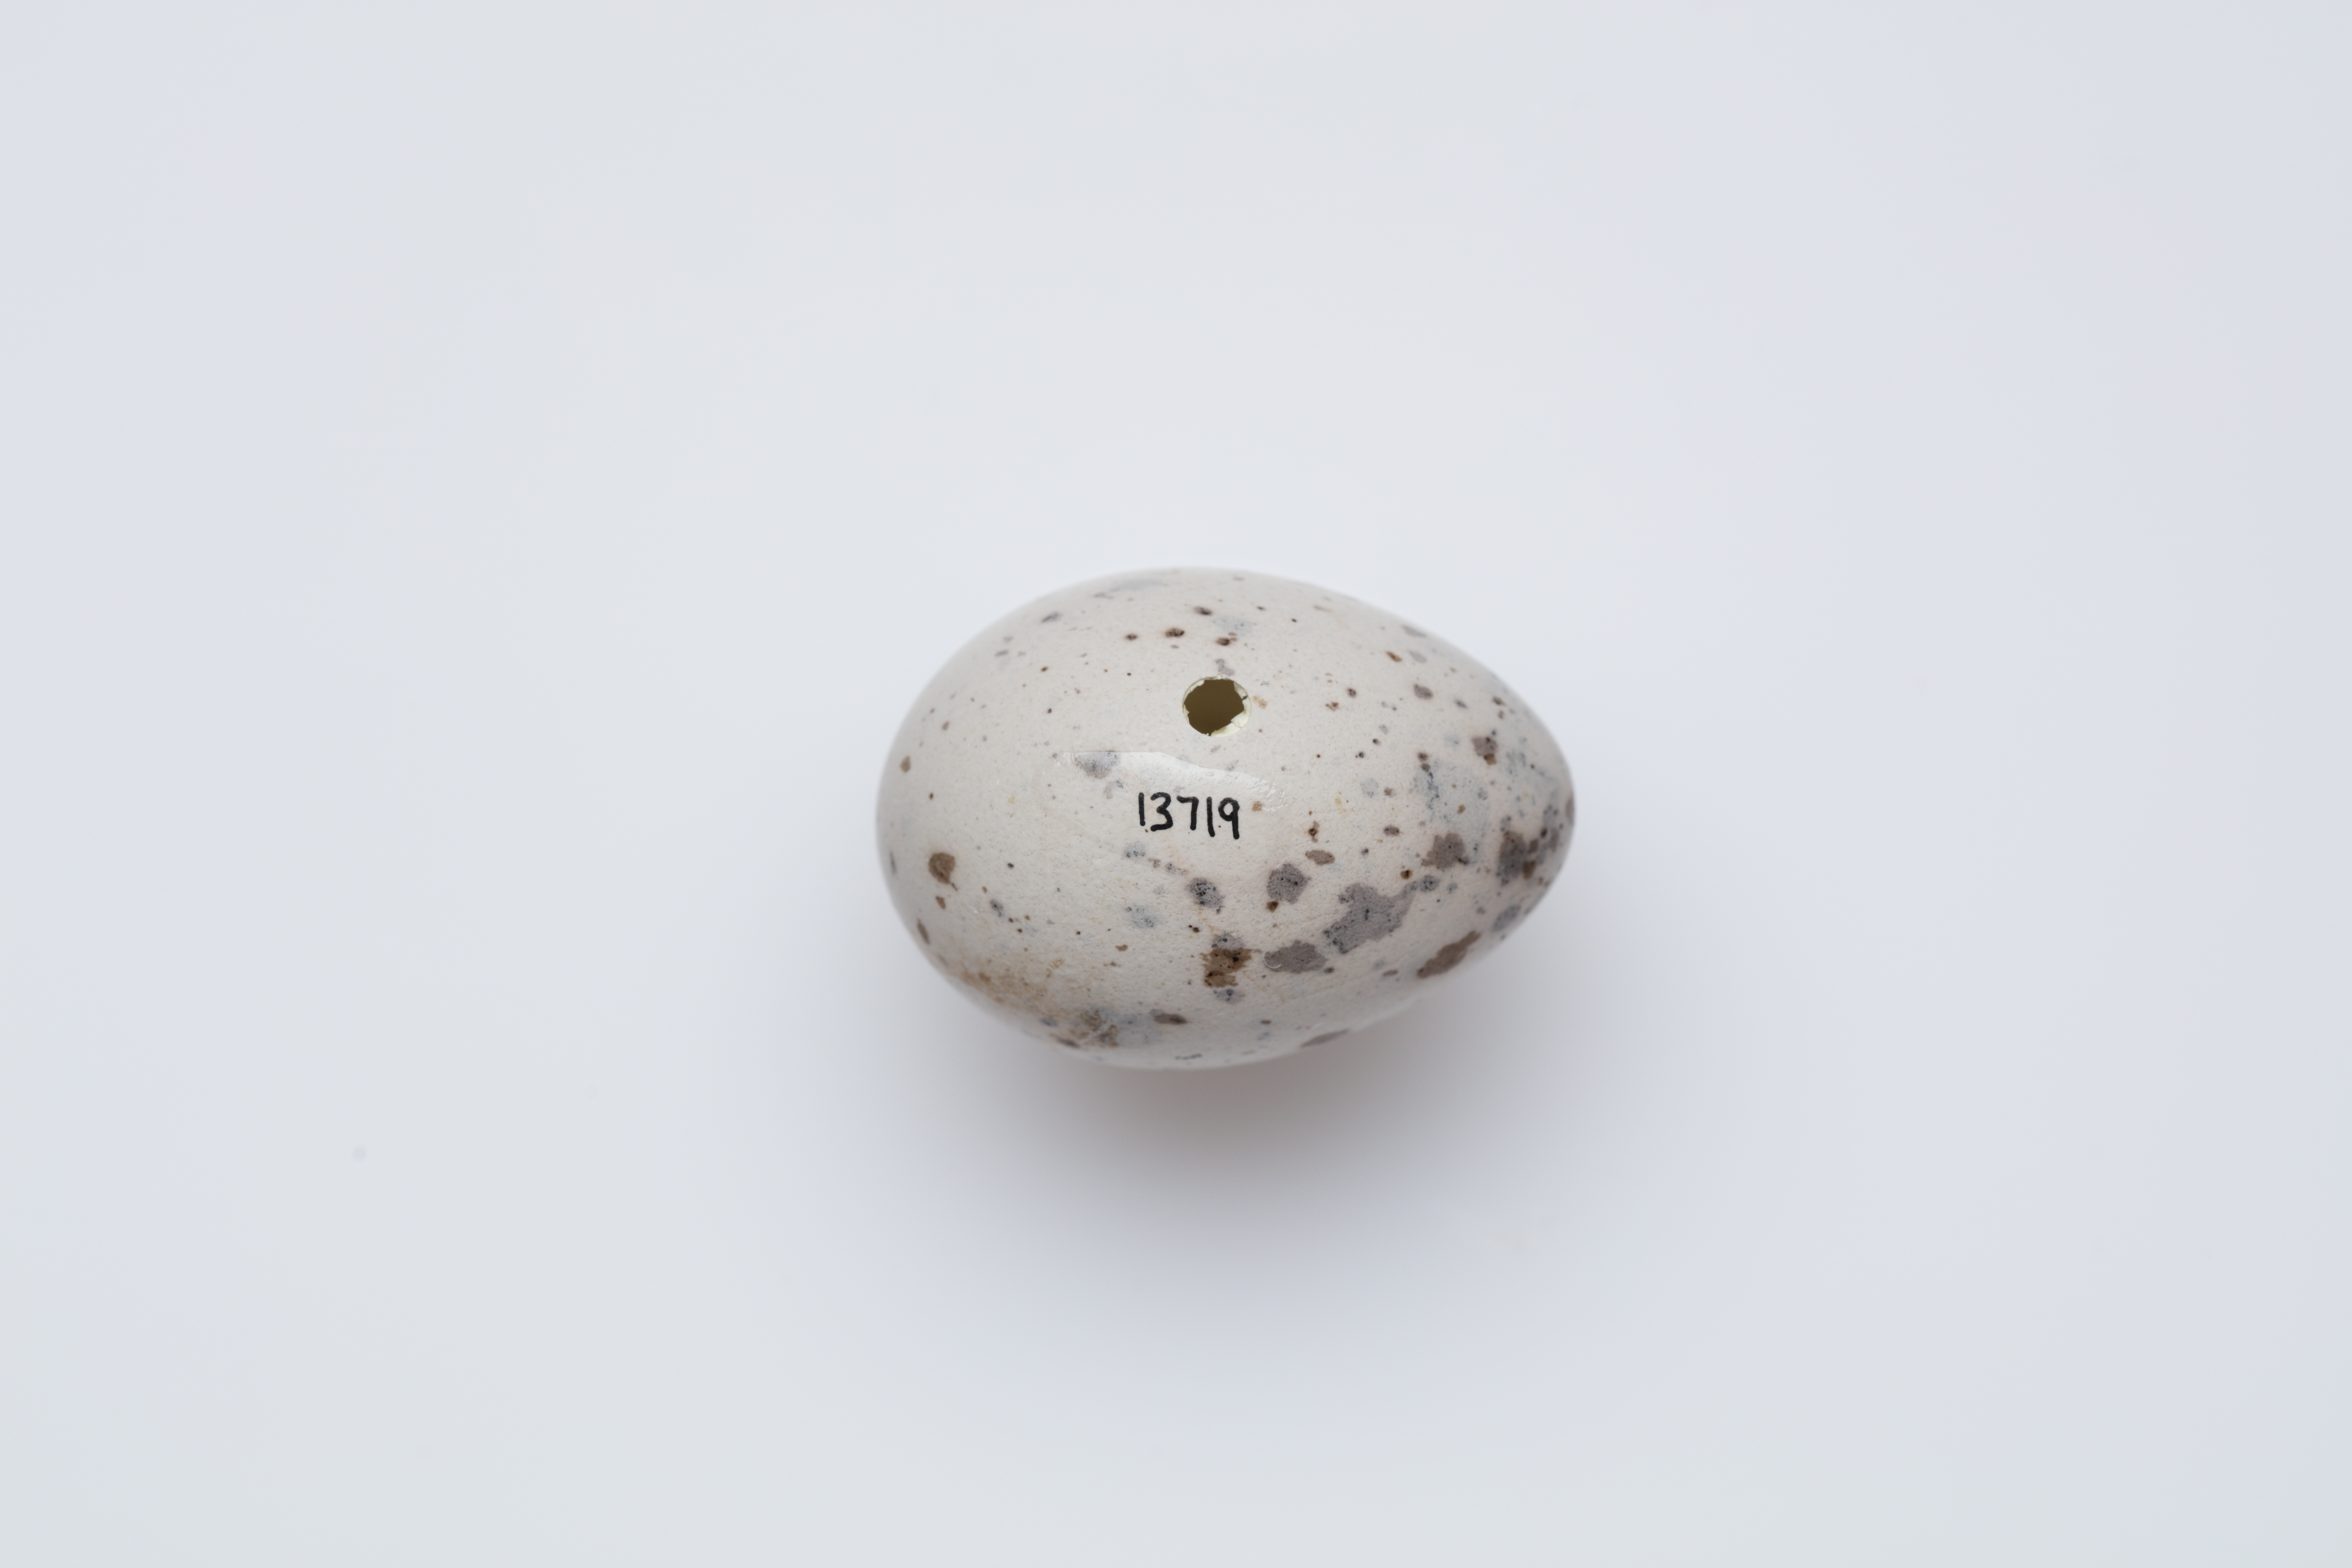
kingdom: Animalia
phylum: Chordata
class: Aves
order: Passeriformes
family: Callaeatidae
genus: Callaeas
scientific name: Callaeas cinereus
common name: South island kokako
